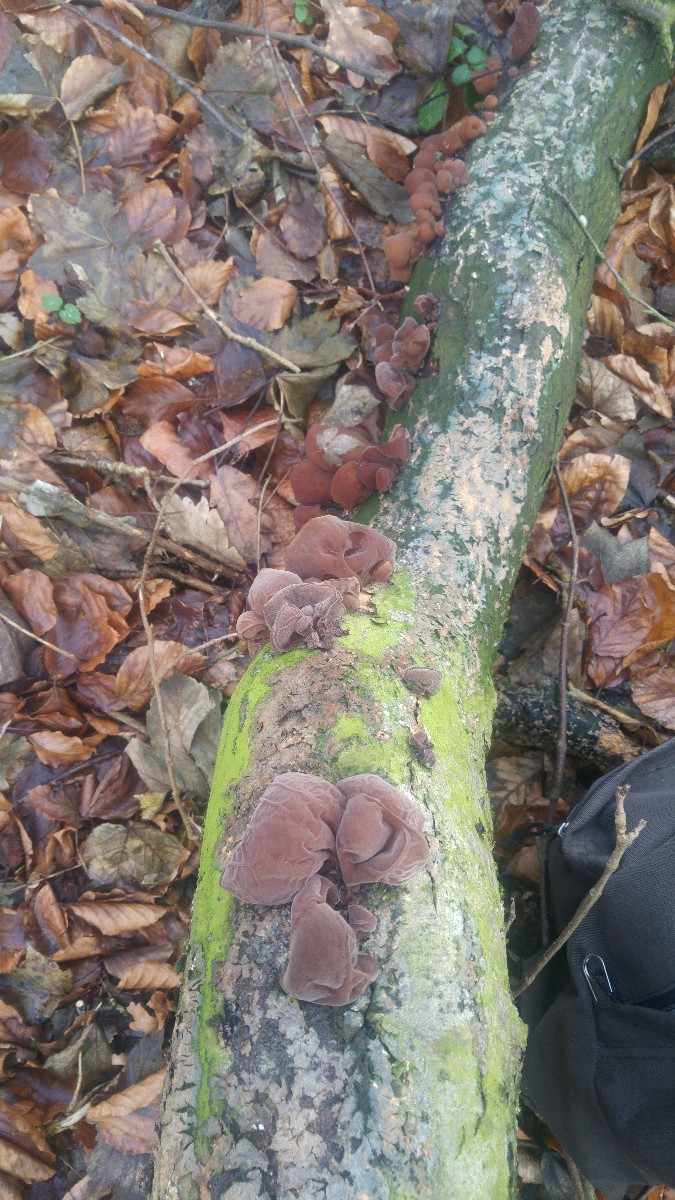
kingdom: Fungi
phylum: Basidiomycota
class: Agaricomycetes
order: Auriculariales
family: Auriculariaceae
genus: Auricularia
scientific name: Auricularia auricula-judae
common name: almindelig judasøre
